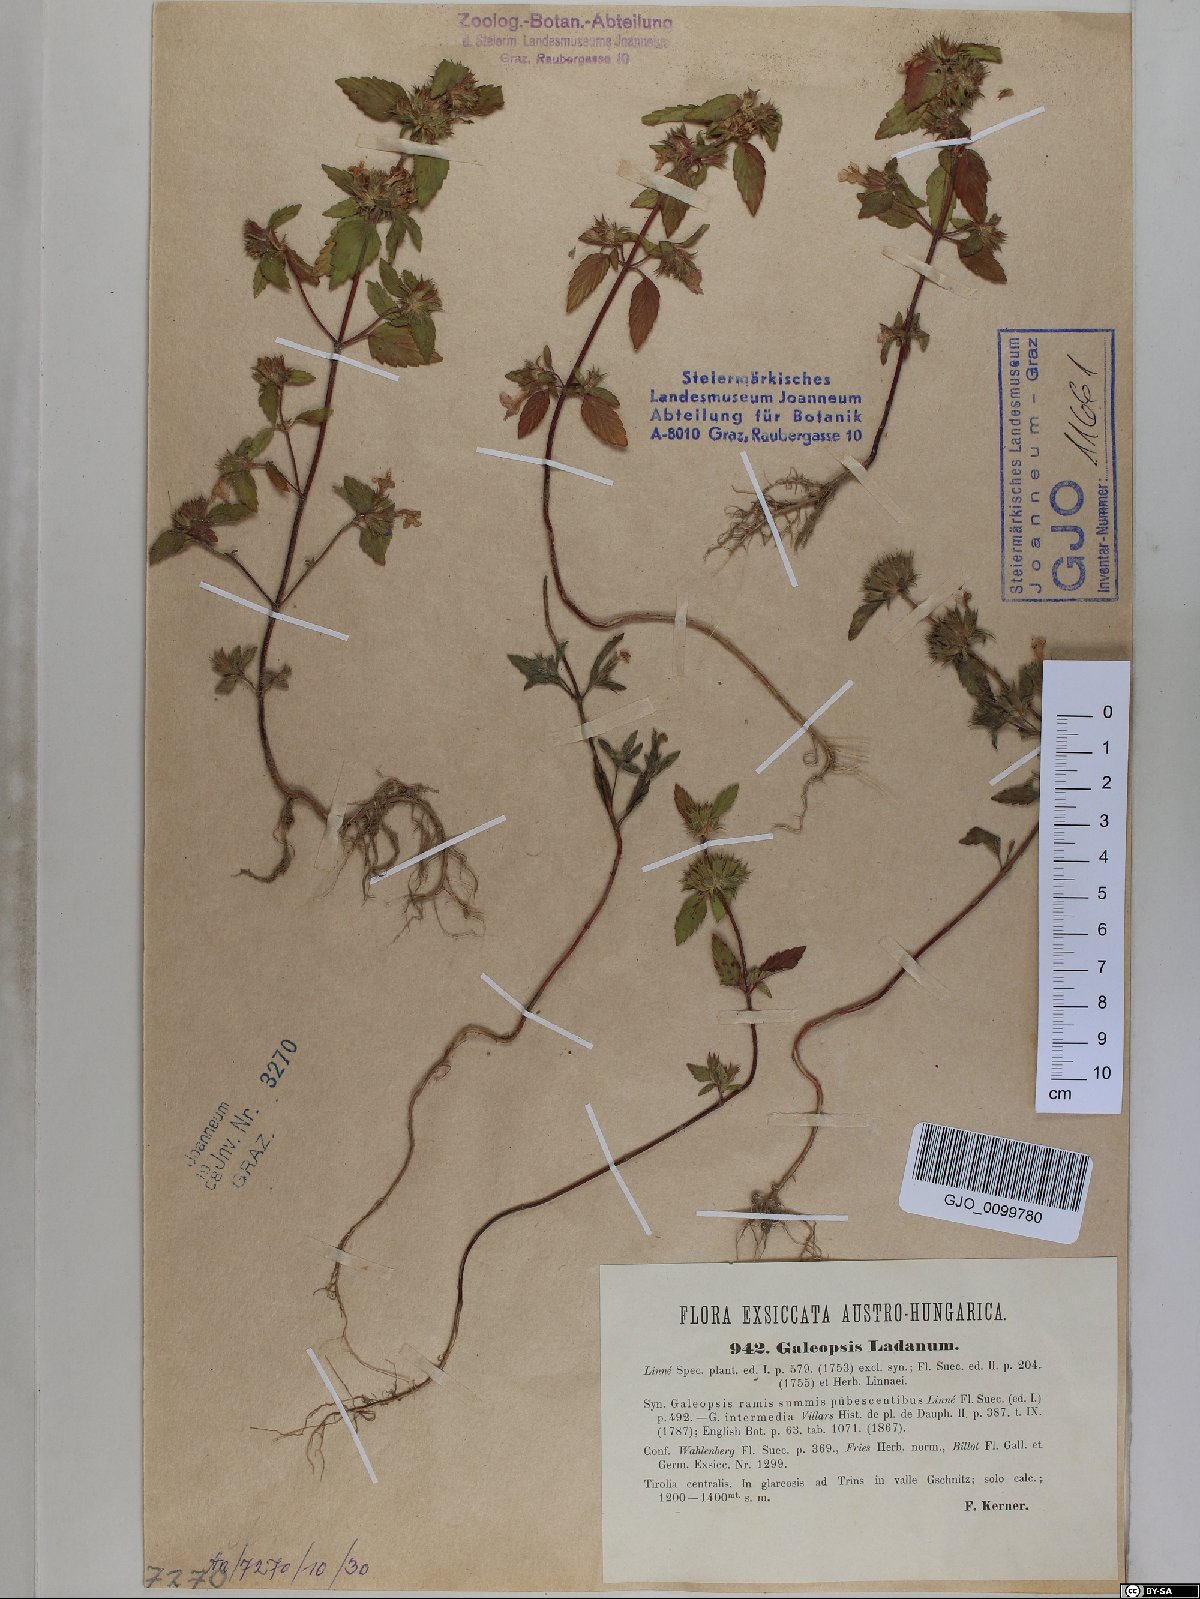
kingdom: Plantae
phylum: Tracheophyta
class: Magnoliopsida
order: Lamiales
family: Lamiaceae
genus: Galeopsis
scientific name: Galeopsis ladanum
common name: Broad-leaved hemp-nettle
